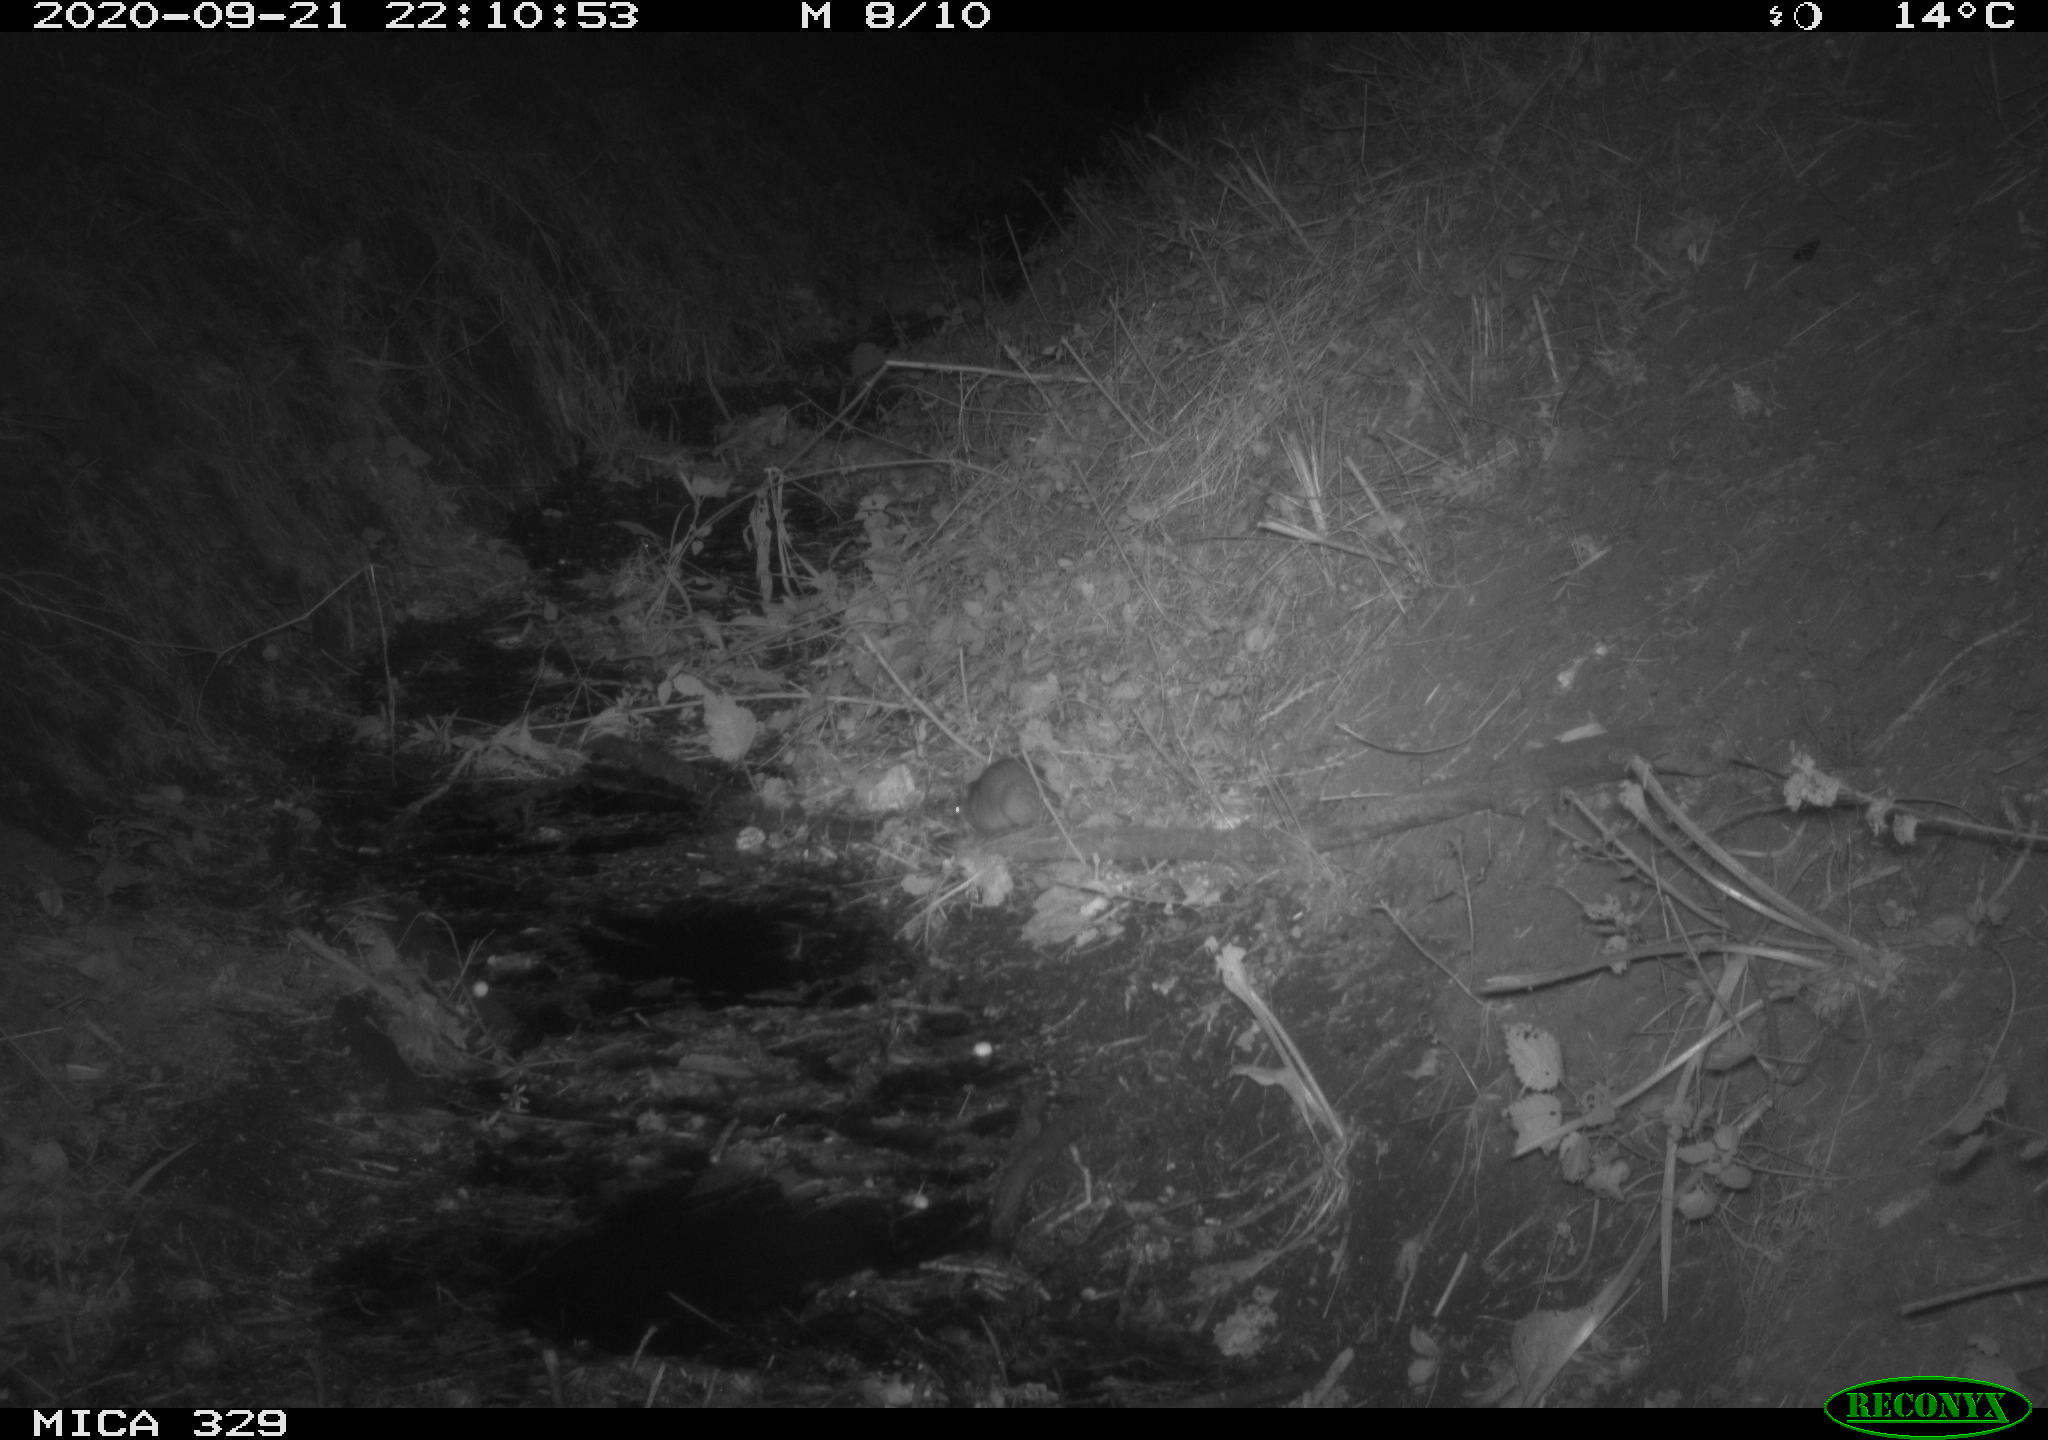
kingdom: Animalia
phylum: Chordata
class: Mammalia
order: Rodentia
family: Muridae
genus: Rattus
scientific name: Rattus norvegicus
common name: Brown rat
